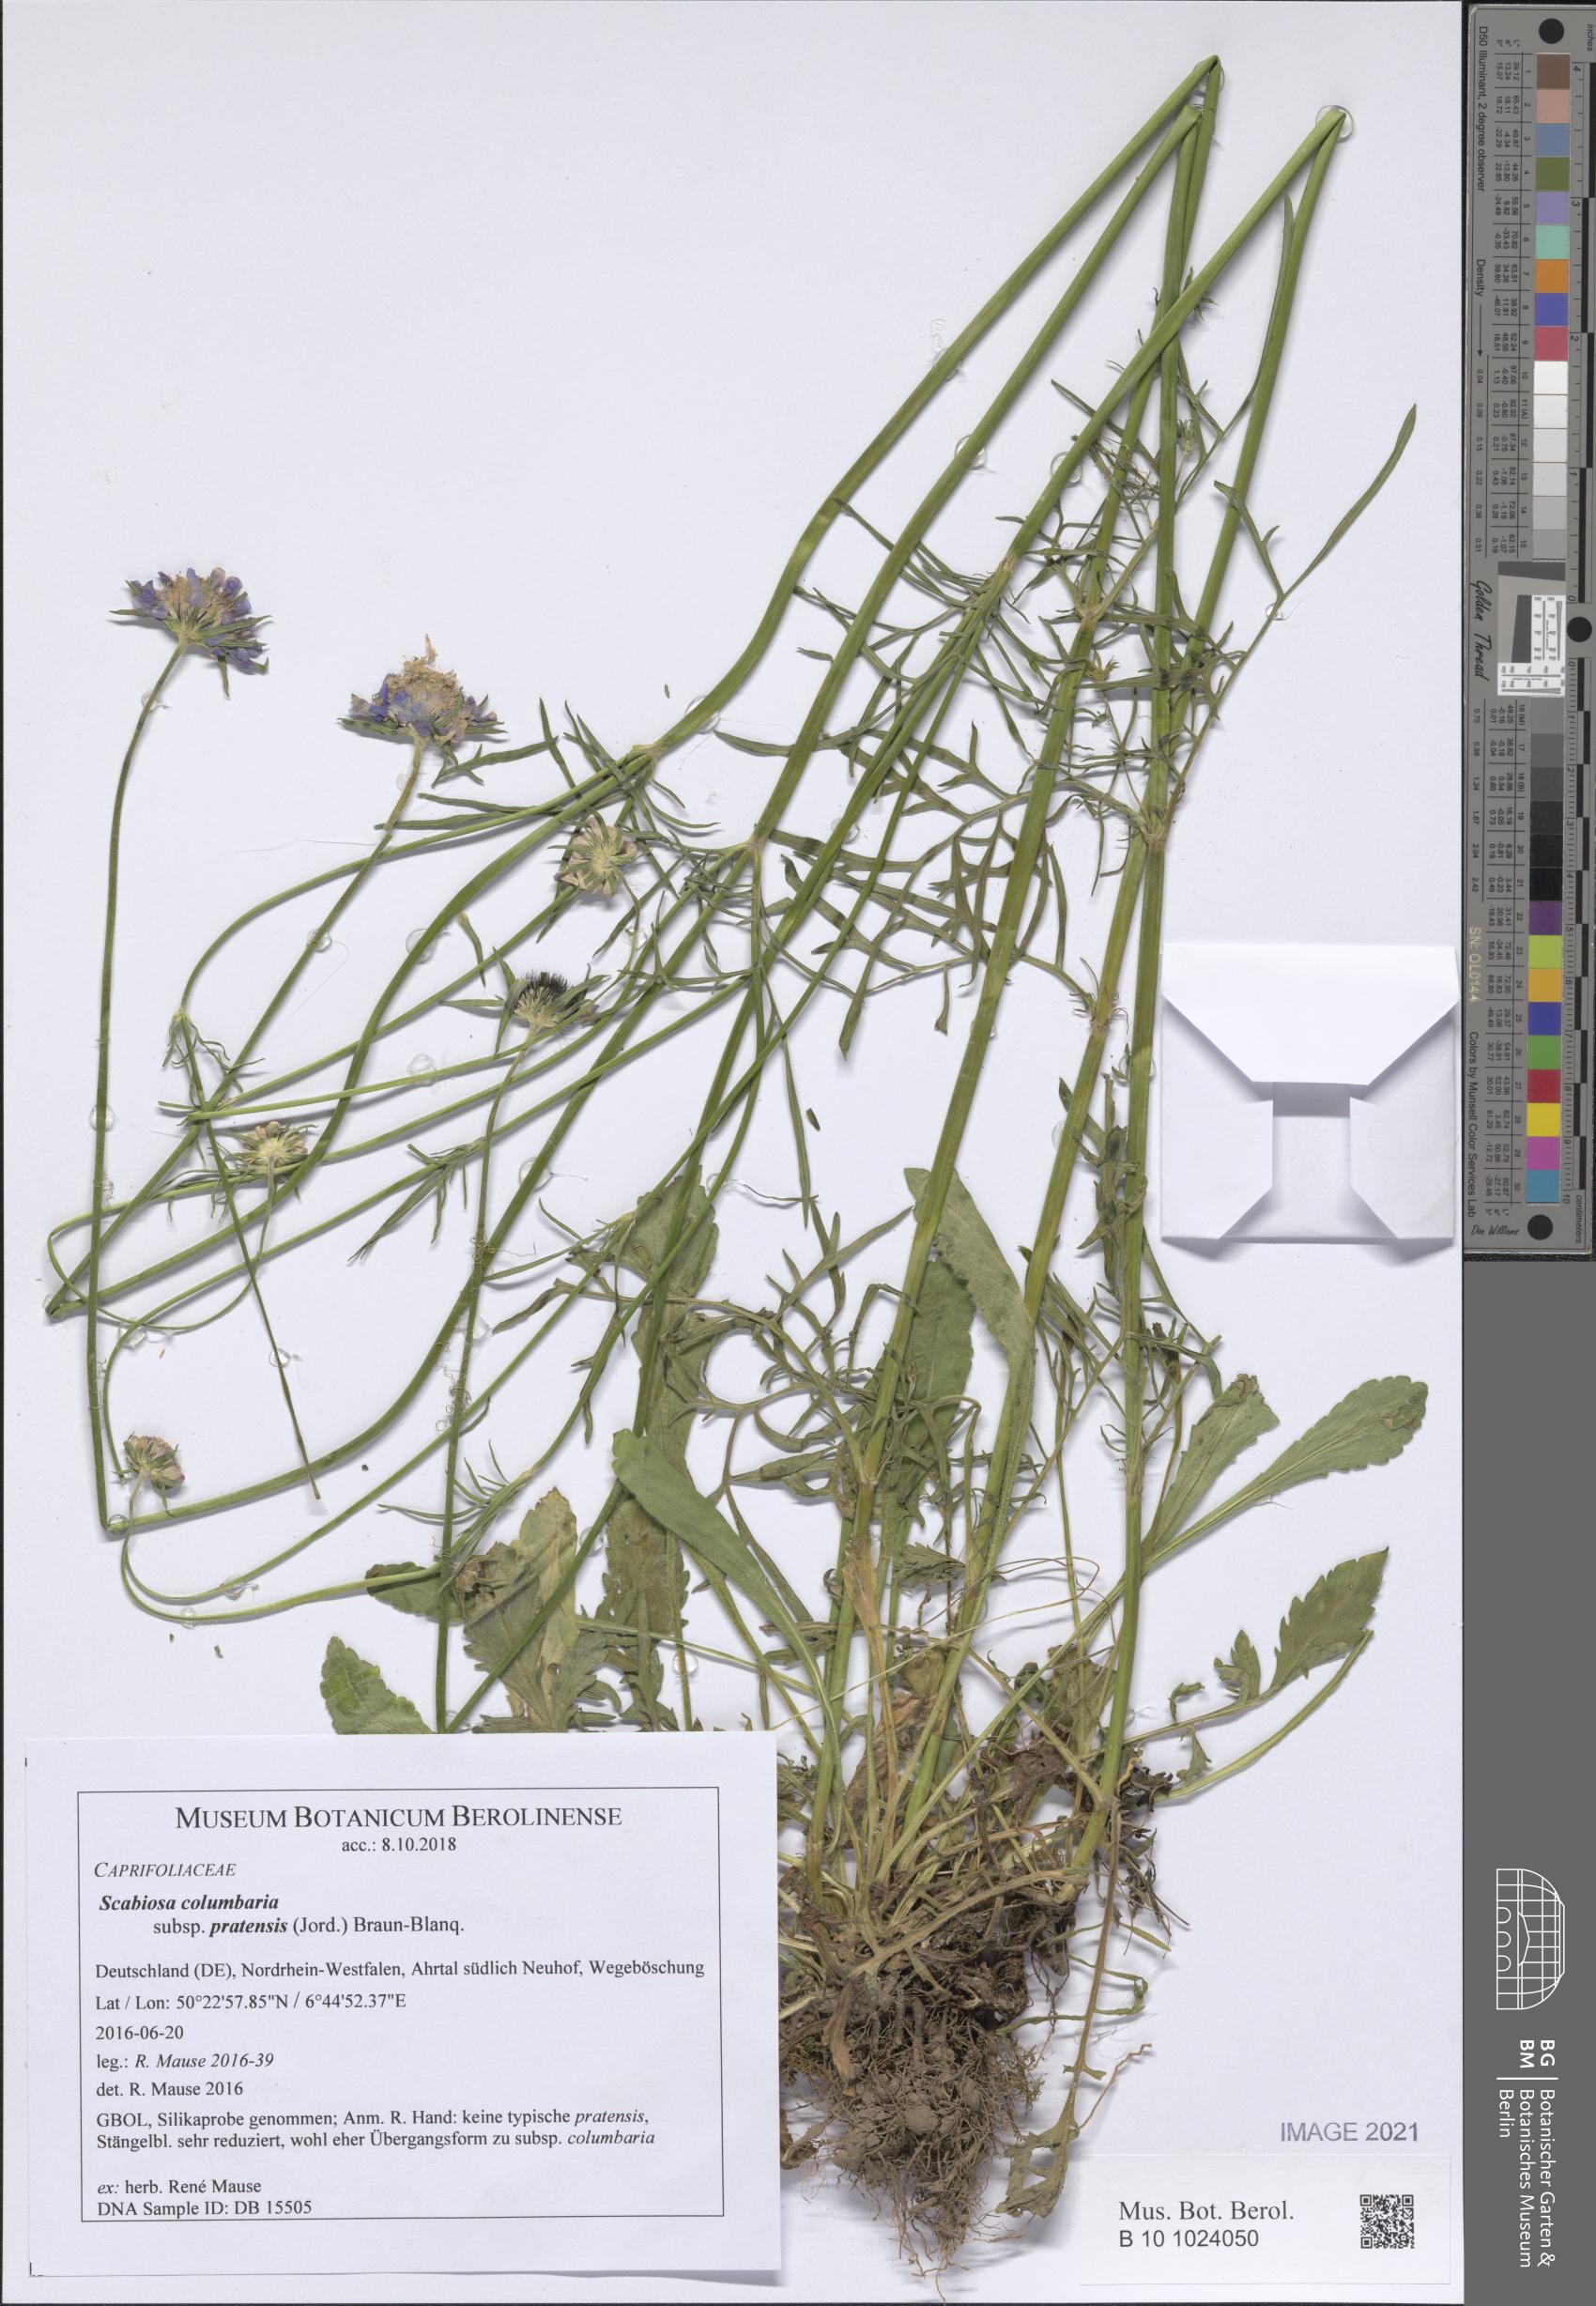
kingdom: Plantae
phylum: Tracheophyta
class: Magnoliopsida
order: Dipsacales
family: Caprifoliaceae
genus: Scabiosa
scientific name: Scabiosa columbaria
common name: Small scabious
